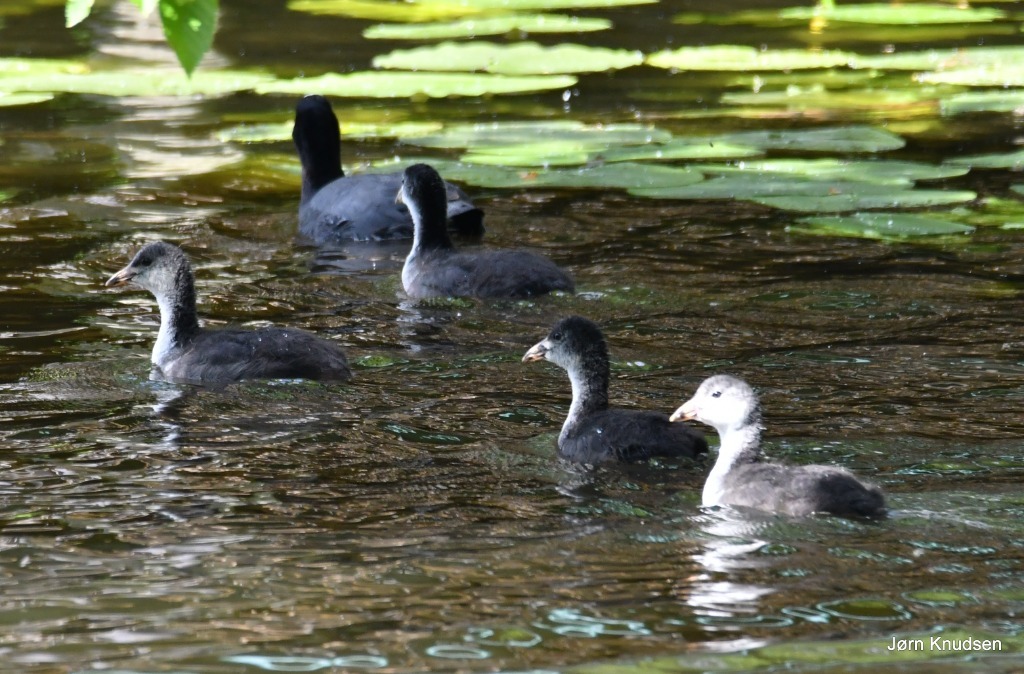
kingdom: Animalia
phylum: Chordata
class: Aves
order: Gruiformes
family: Rallidae
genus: Fulica
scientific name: Fulica atra
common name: Blishøne
